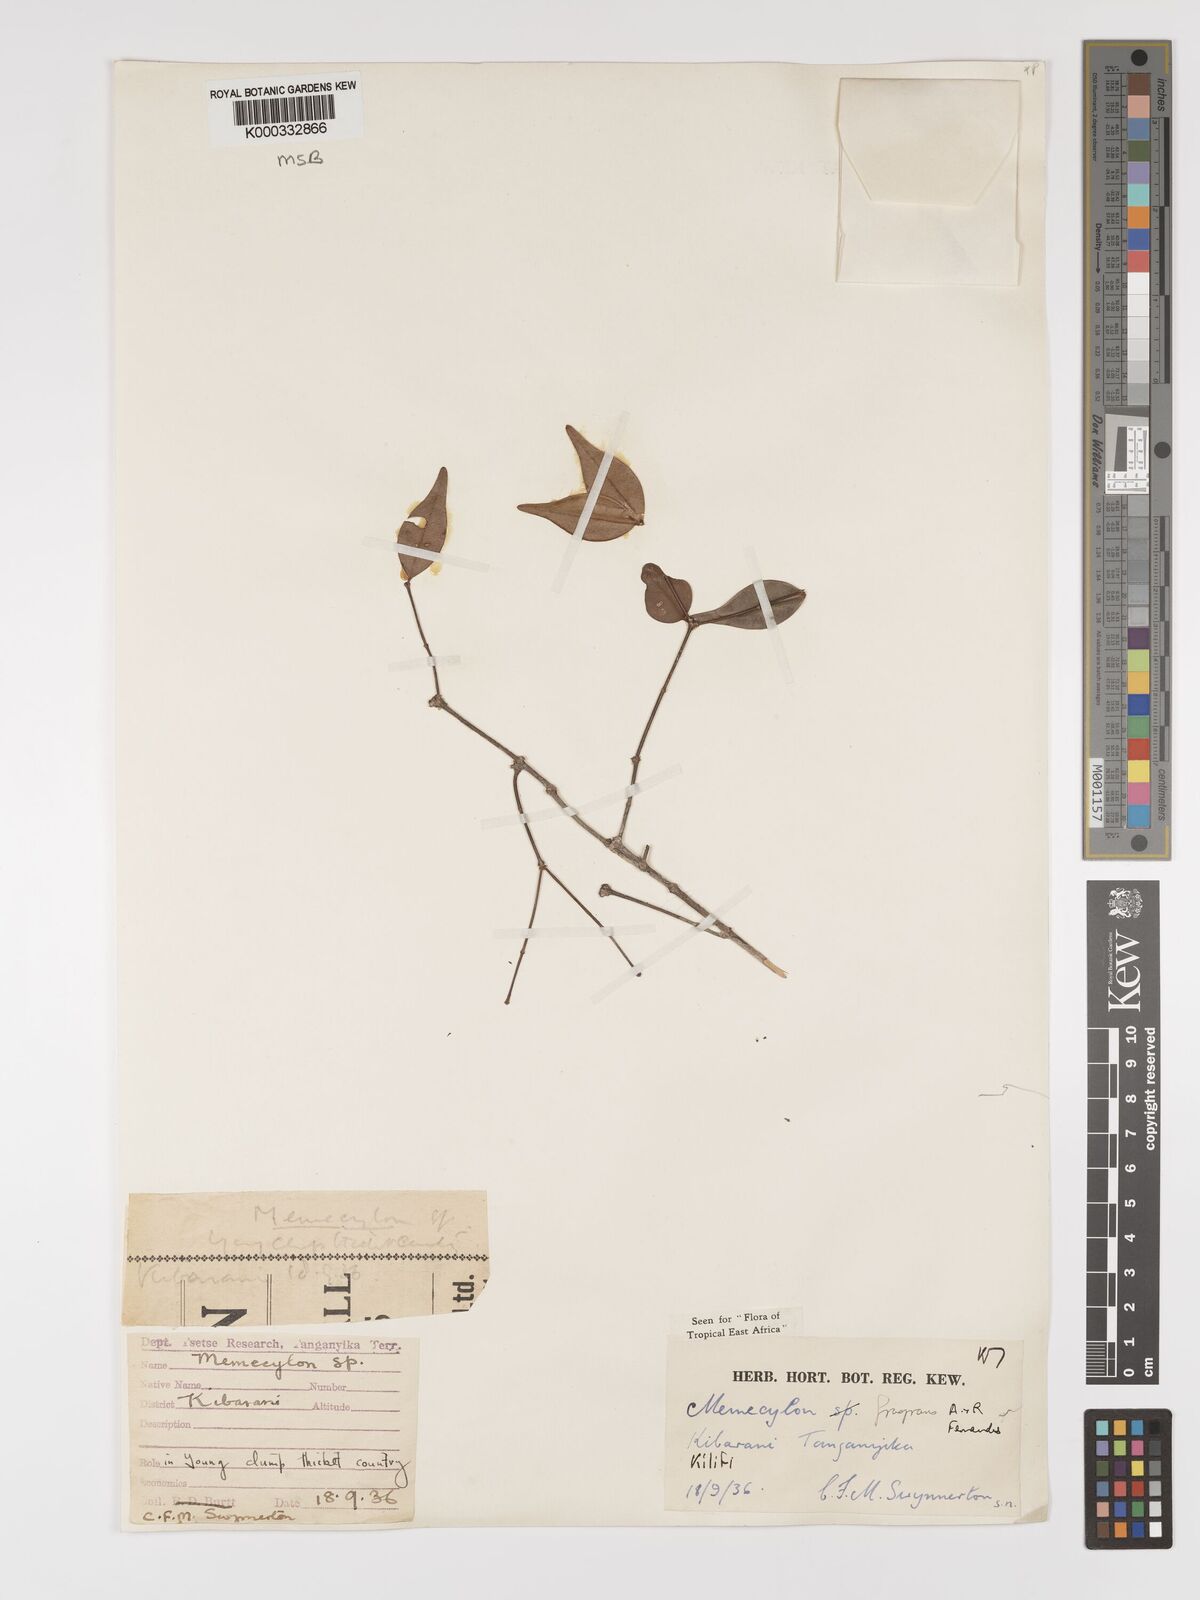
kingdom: Plantae
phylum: Tracheophyta
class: Magnoliopsida
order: Myrtales
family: Melastomataceae
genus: Memecylon
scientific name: Memecylon fragrans
